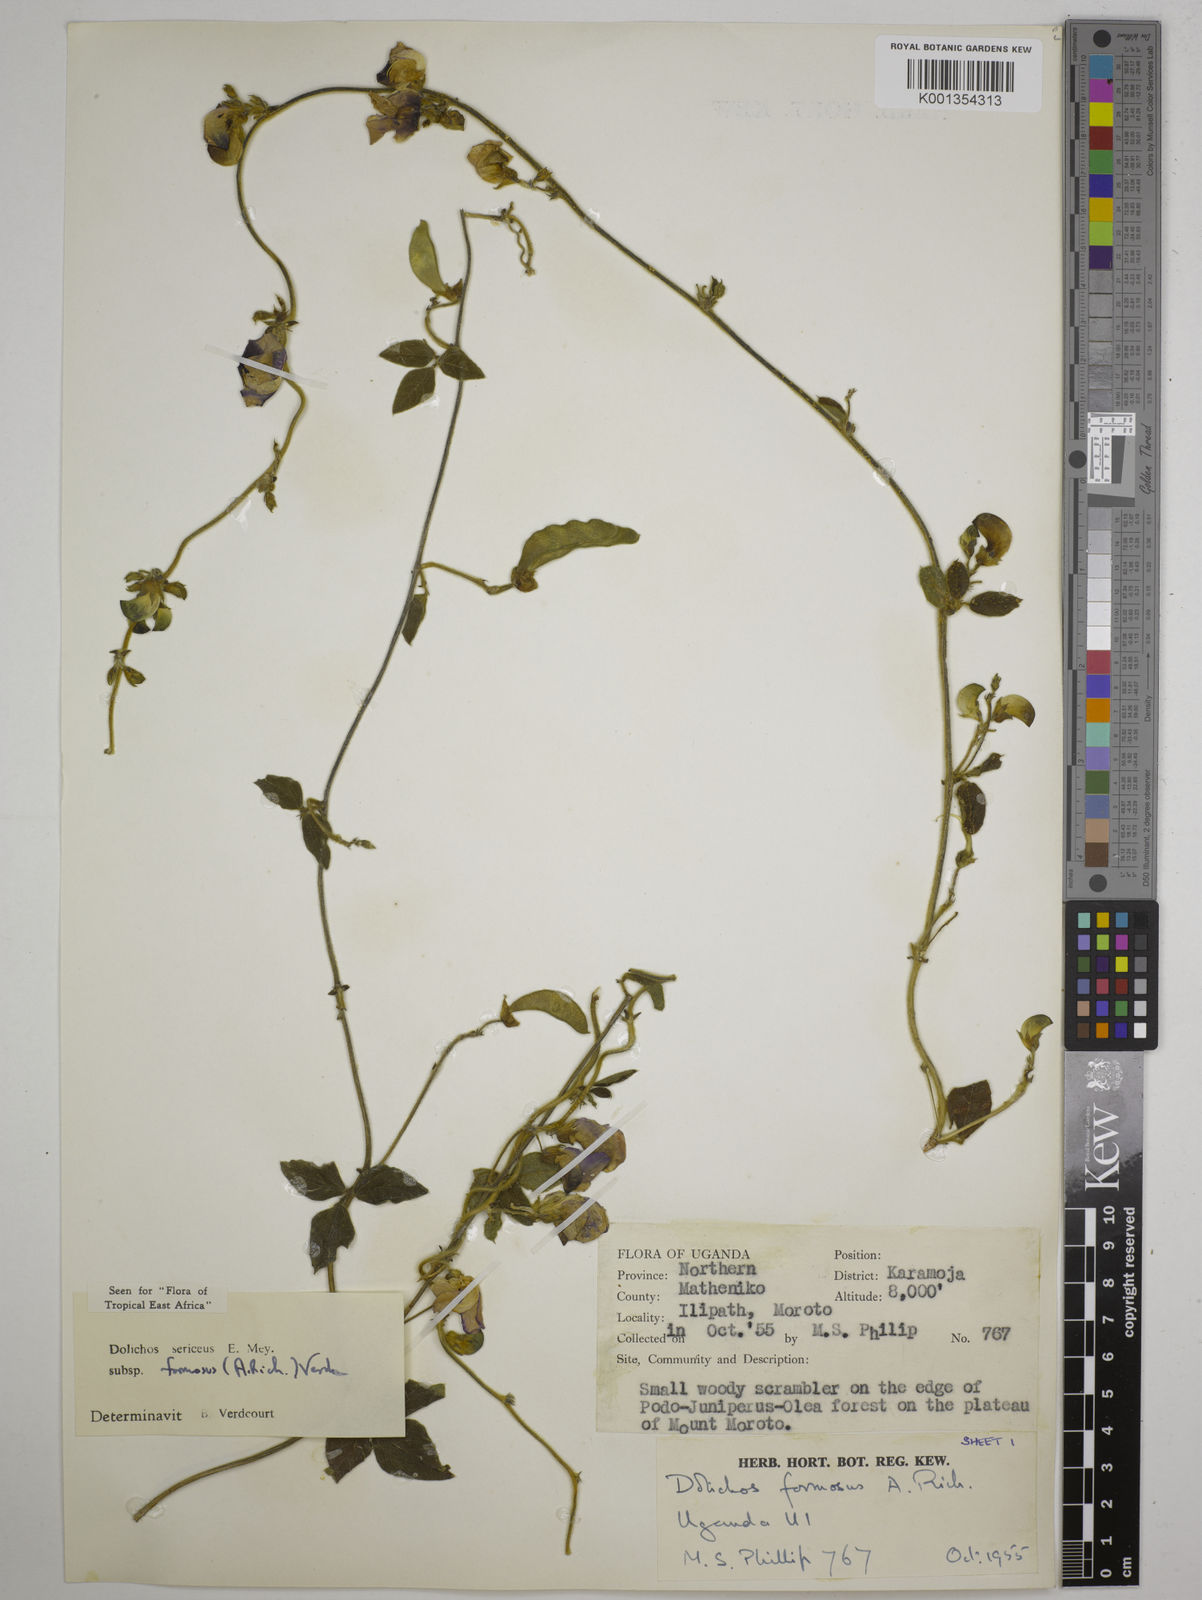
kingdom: Plantae
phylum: Tracheophyta
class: Magnoliopsida
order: Fabales
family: Fabaceae
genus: Dolichos
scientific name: Dolichos
